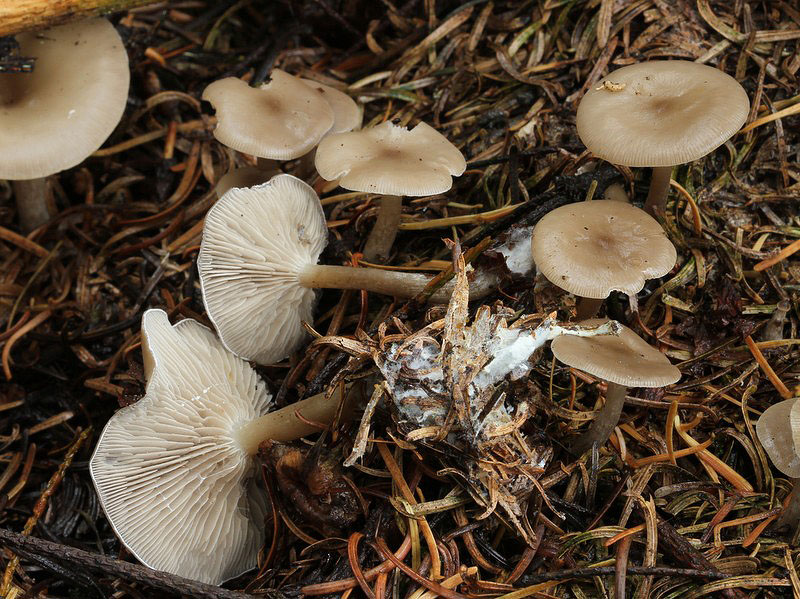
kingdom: Fungi
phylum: Basidiomycota
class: Agaricomycetes
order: Agaricales
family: Tricholomataceae
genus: Clitocybe
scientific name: Clitocybe metachroa
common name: grå tragthat
